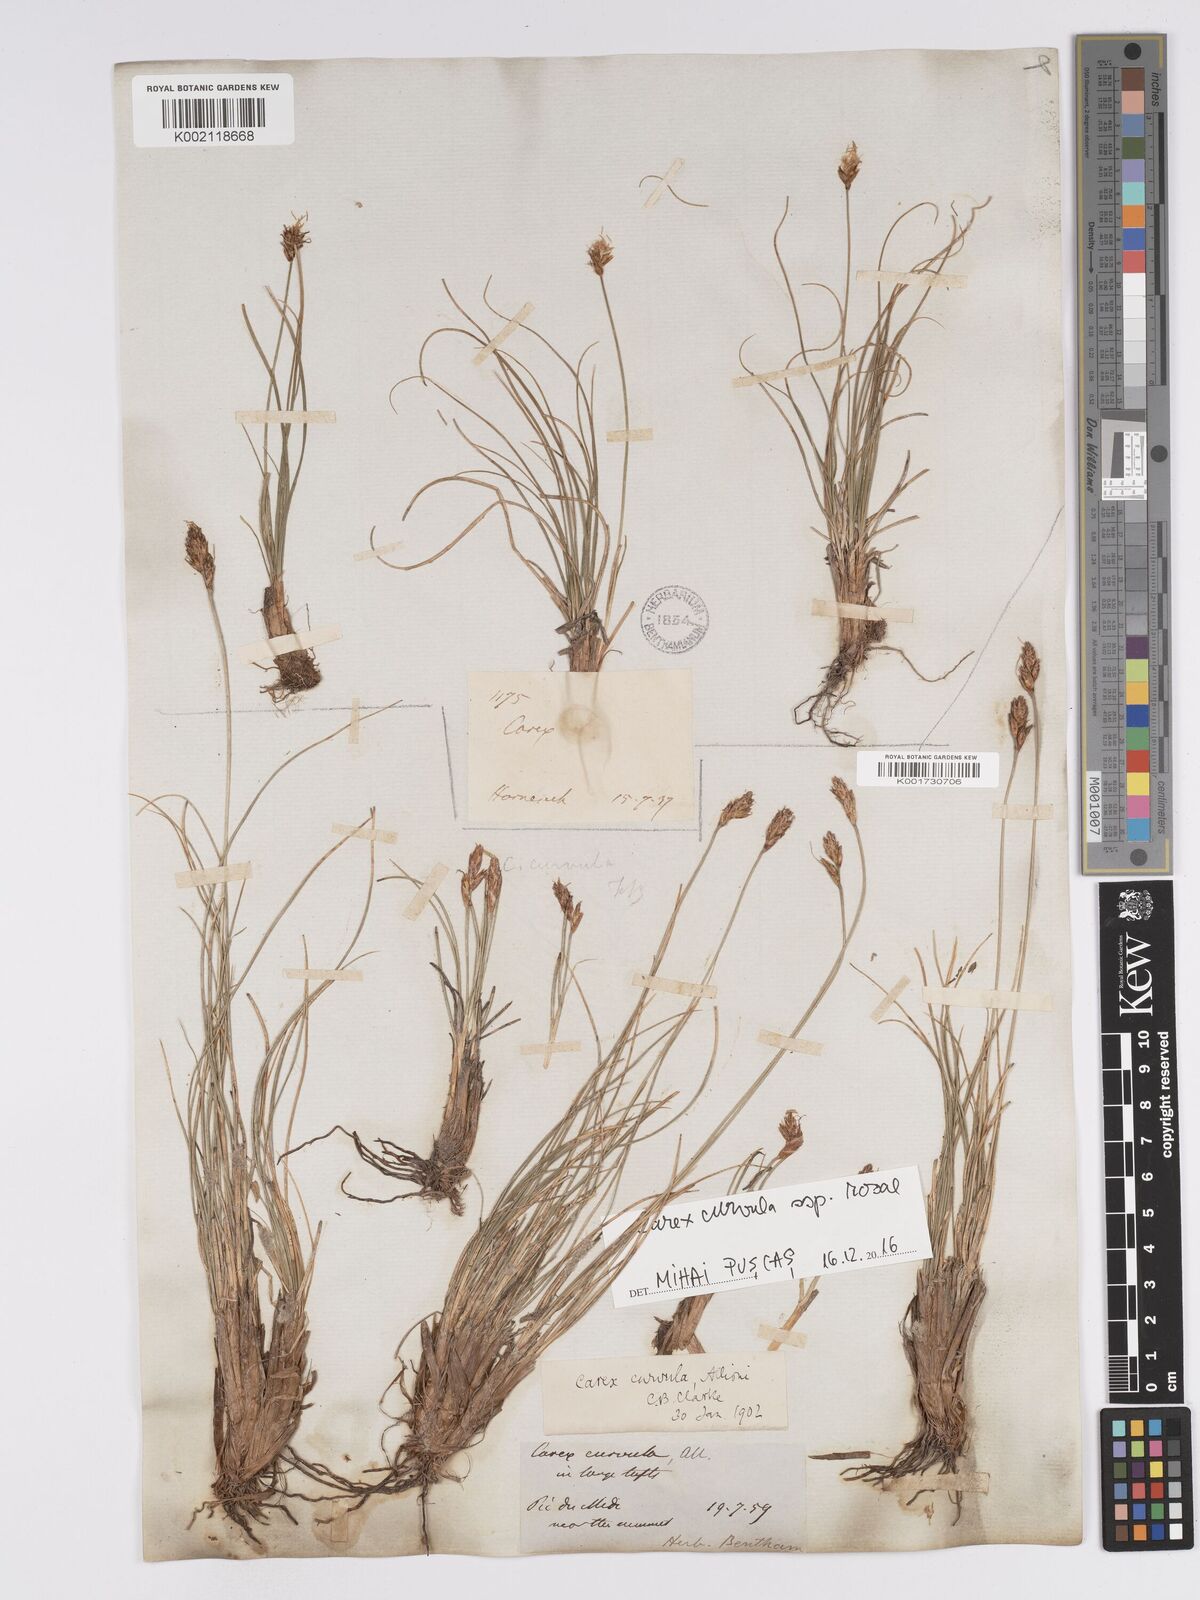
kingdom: Plantae
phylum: Tracheophyta
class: Liliopsida
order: Poales
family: Cyperaceae
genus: Carex
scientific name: Carex curvula
